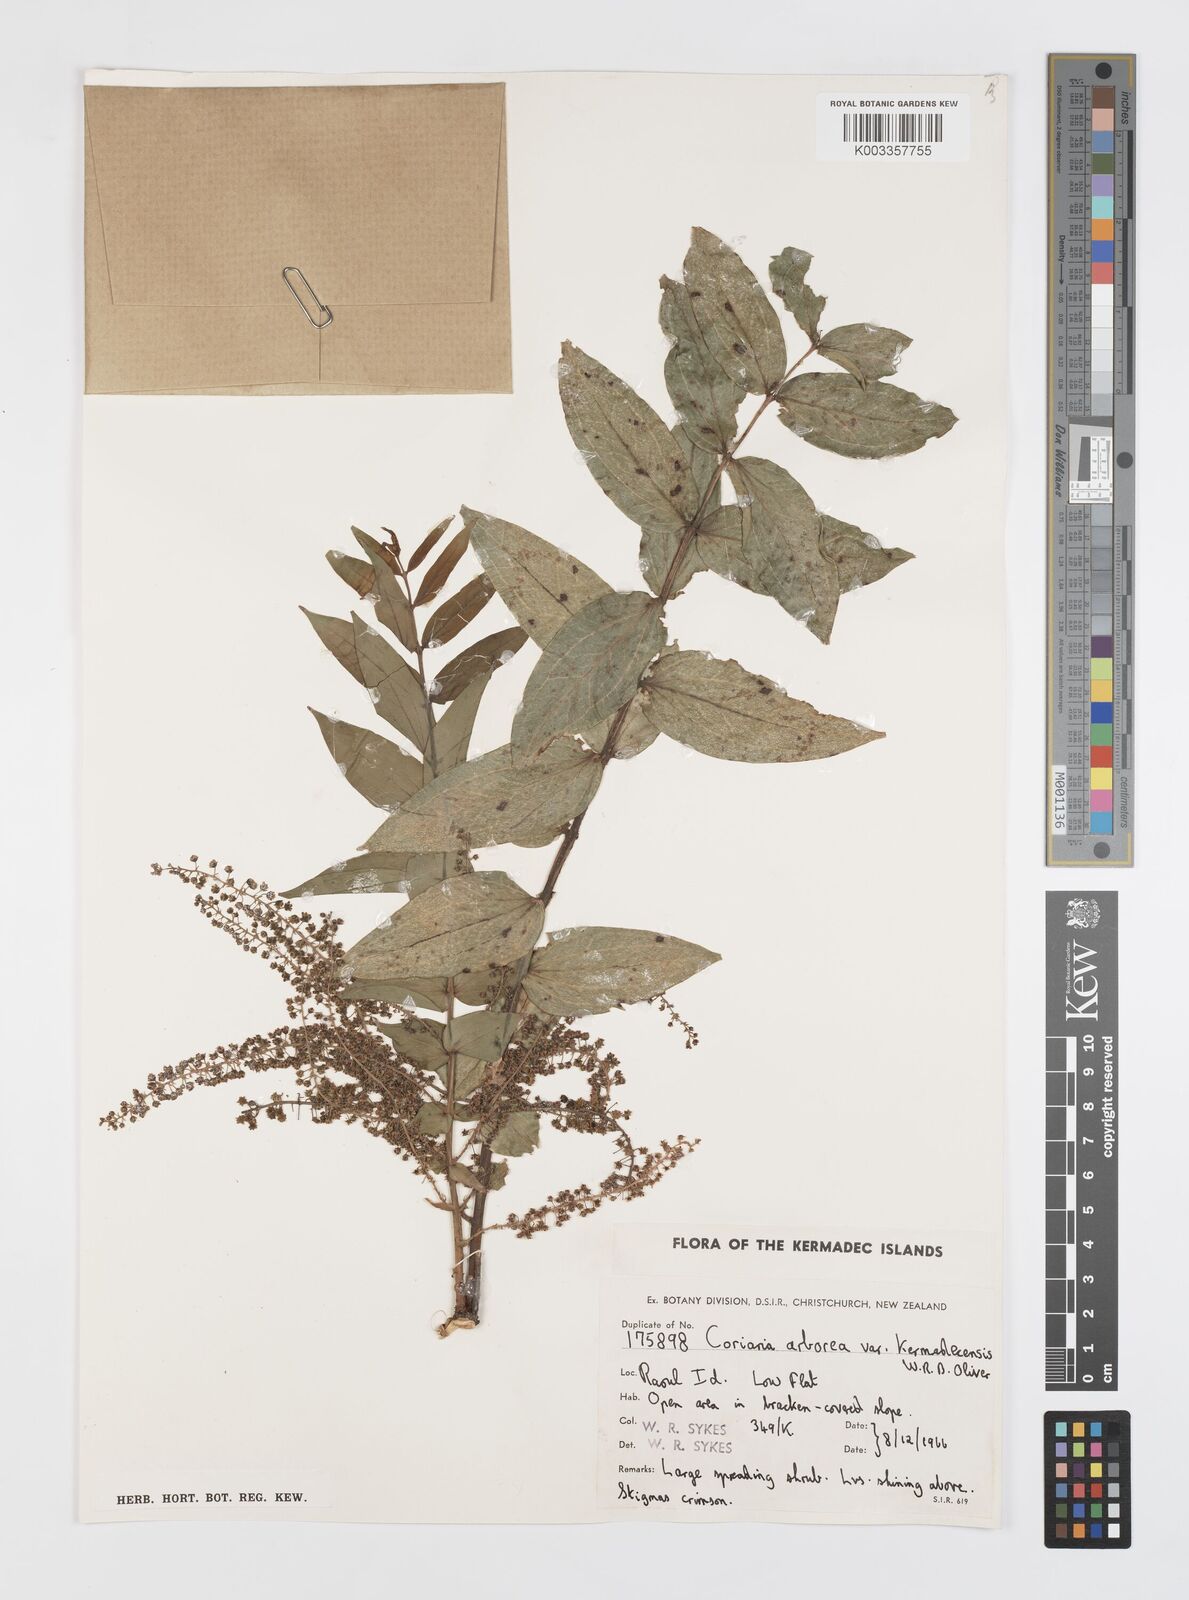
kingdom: Plantae
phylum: Tracheophyta
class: Magnoliopsida
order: Cucurbitales
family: Coriariaceae
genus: Coriaria
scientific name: Coriaria arborea
